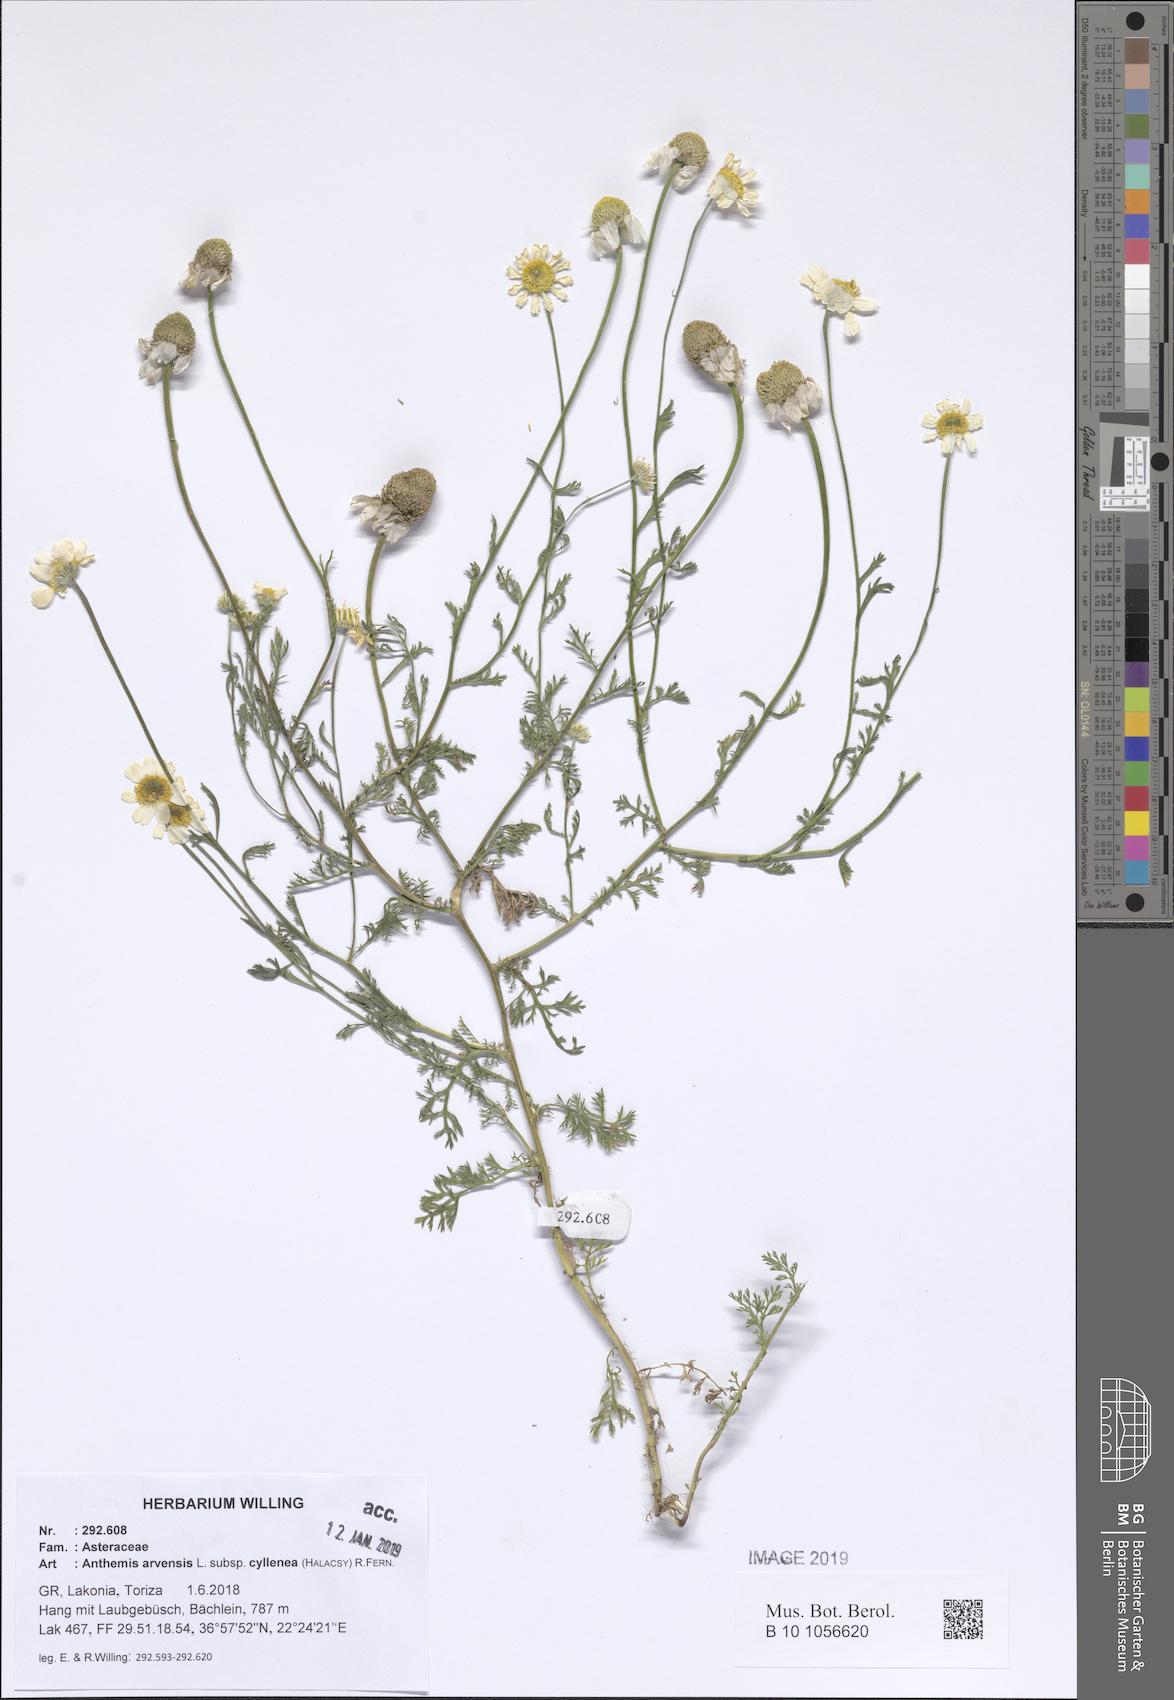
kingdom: Plantae
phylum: Tracheophyta
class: Magnoliopsida
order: Asterales
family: Asteraceae
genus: Anthemis
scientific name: Anthemis arvensis
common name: Corn chamomile
